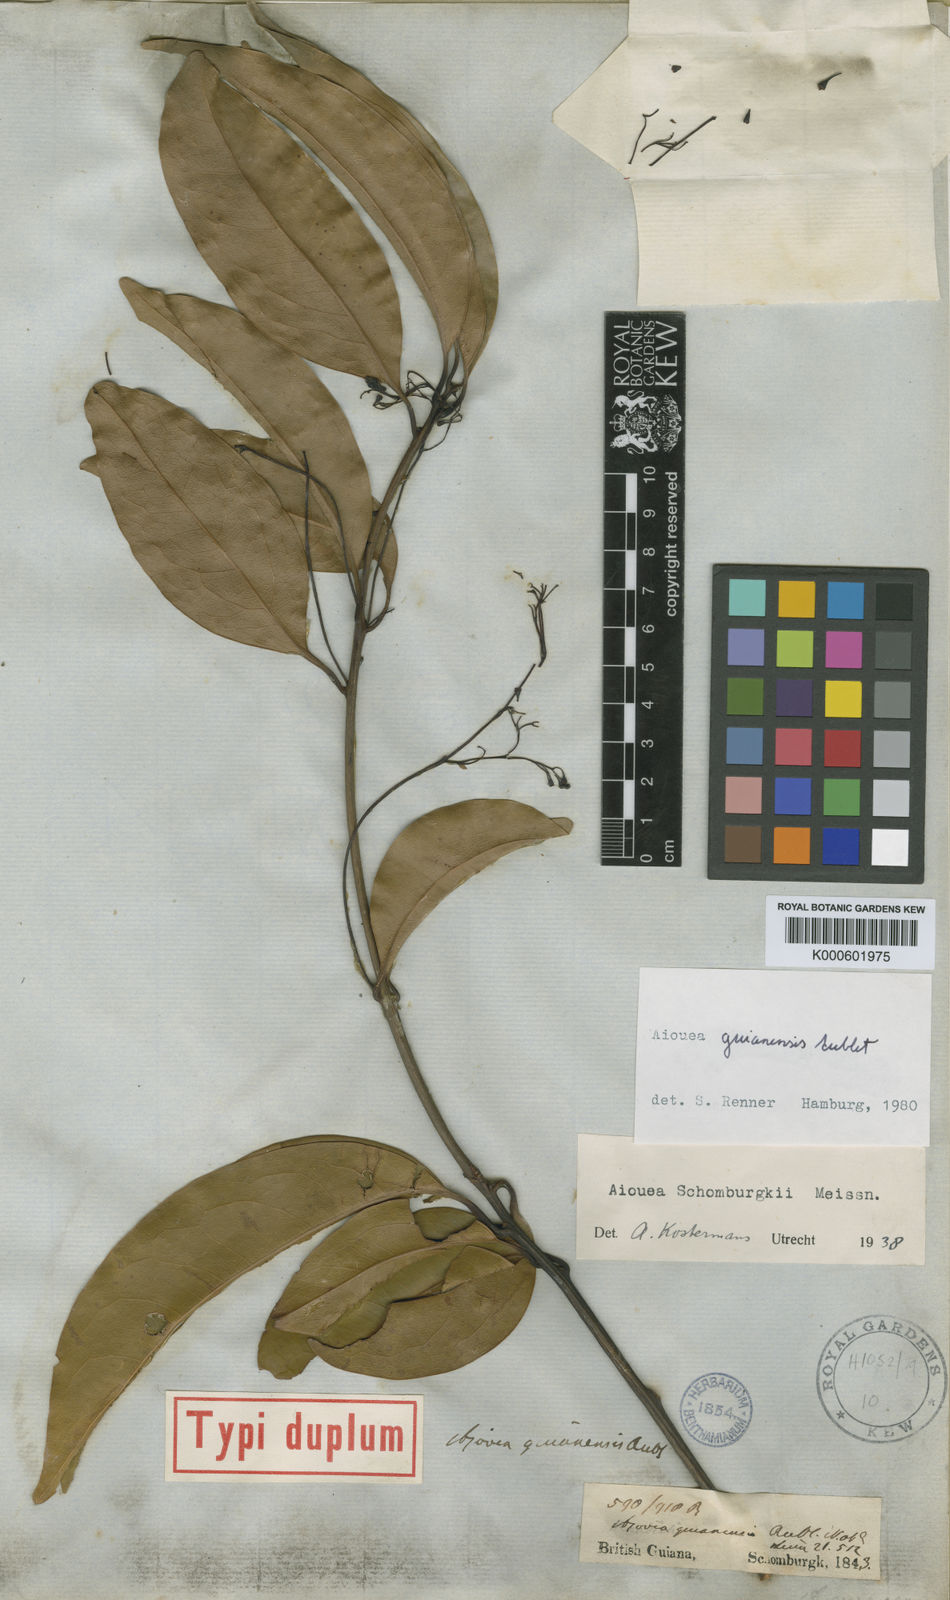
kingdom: Plantae
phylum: Tracheophyta
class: Magnoliopsida
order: Laurales
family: Lauraceae
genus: Aiouea
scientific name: Aiouea guianensis
